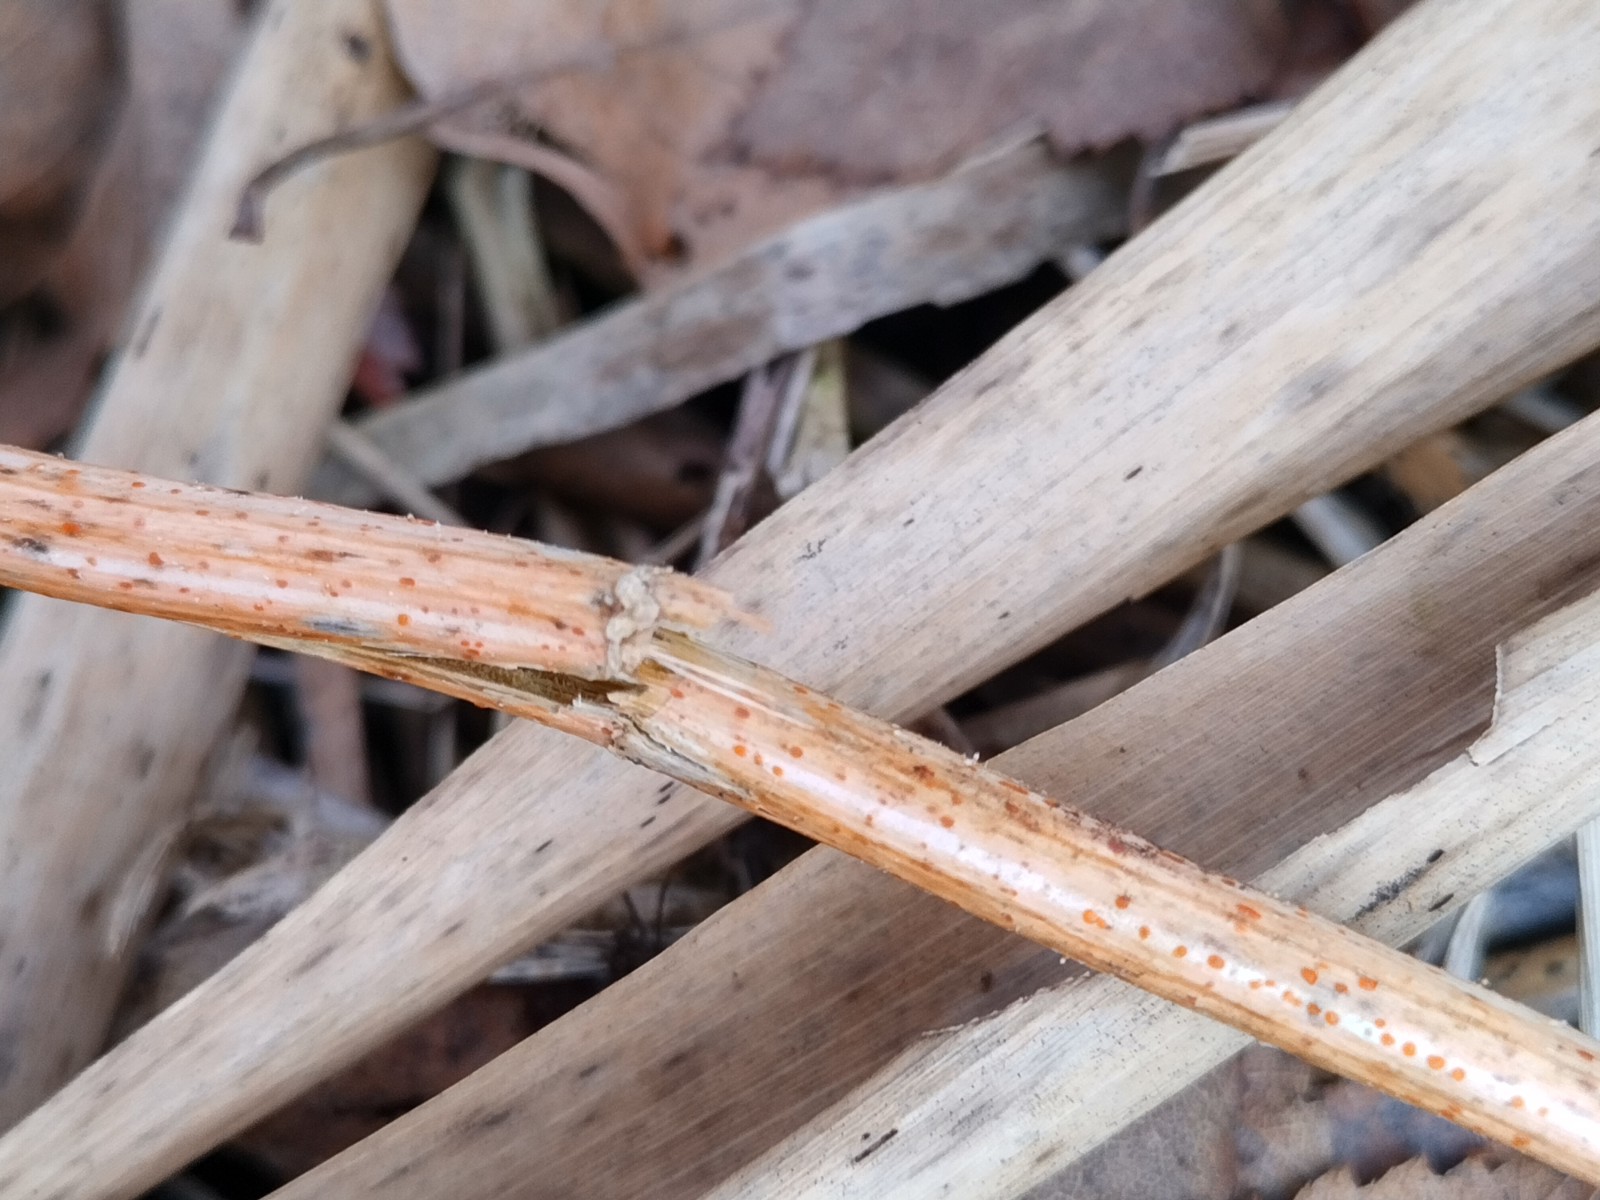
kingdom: Fungi
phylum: Ascomycota
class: Leotiomycetes
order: Helotiales
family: Calloriaceae
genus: Calloria
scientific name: Calloria urticae
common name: nælde-orangeskive
